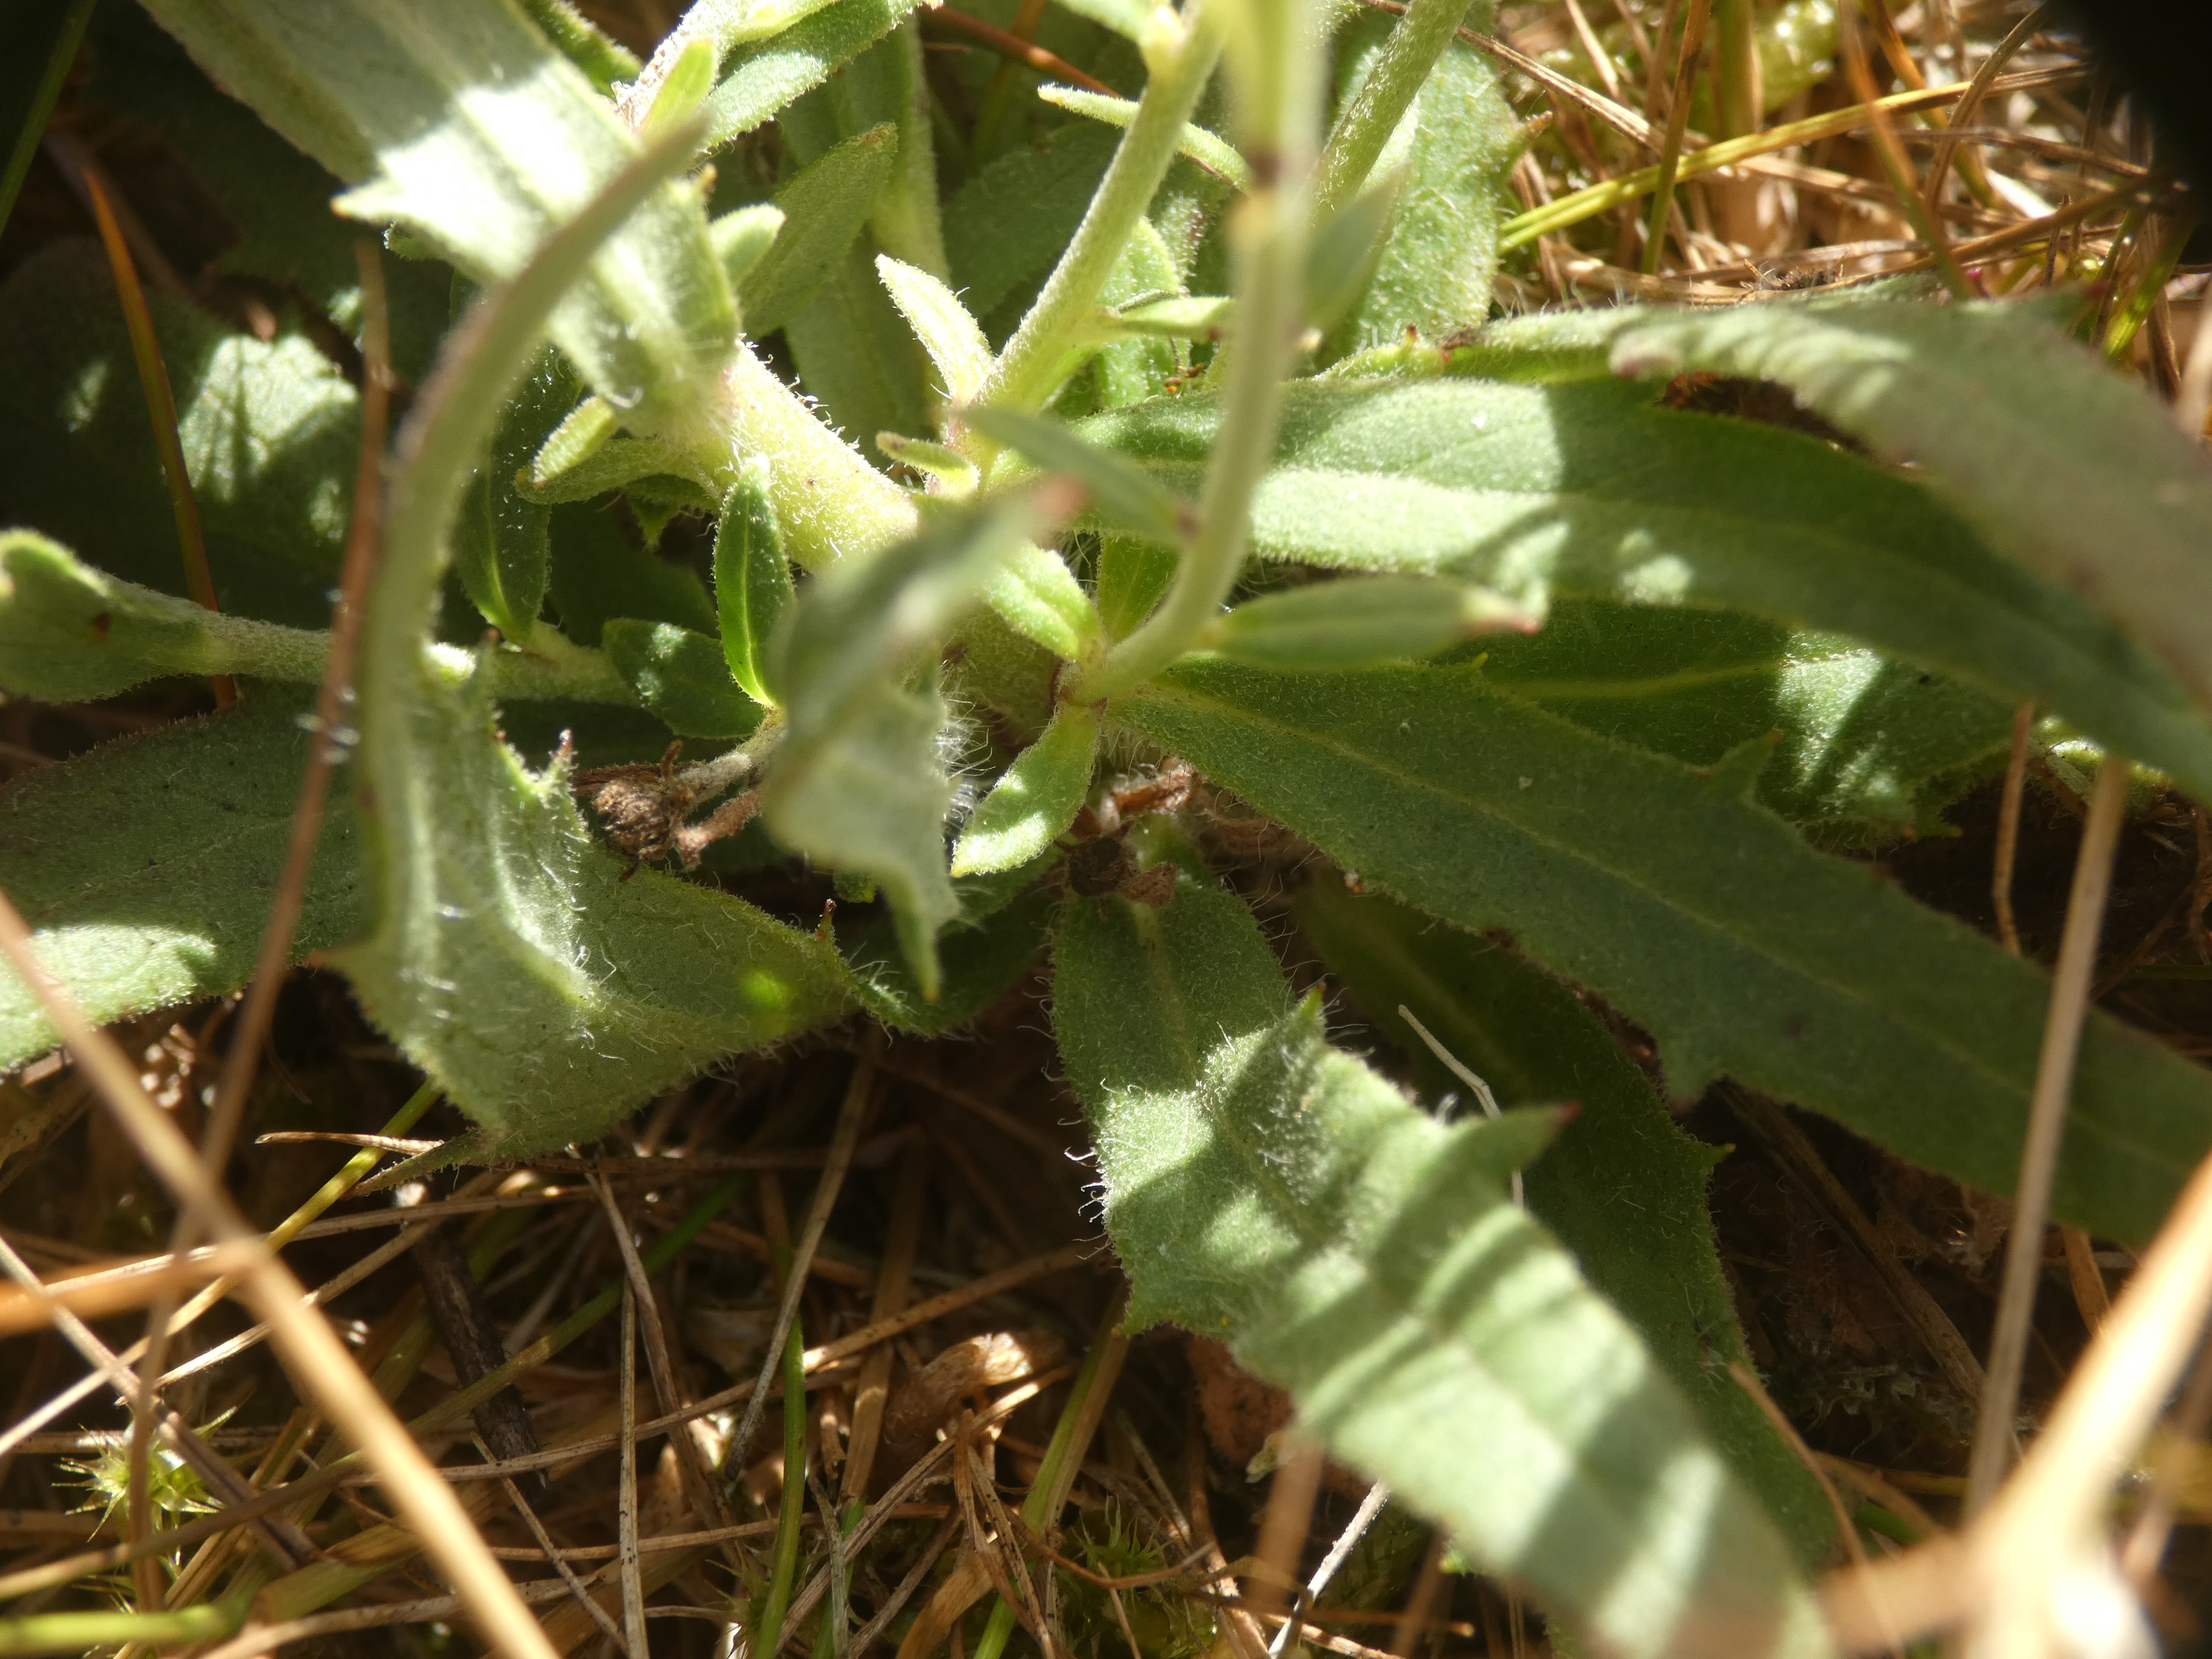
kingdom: Plantae
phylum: Tracheophyta
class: Magnoliopsida
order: Asterales
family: Asteraceae
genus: Hieracium
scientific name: Hieracium umbellatum
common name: Smalbladet høgeurt
